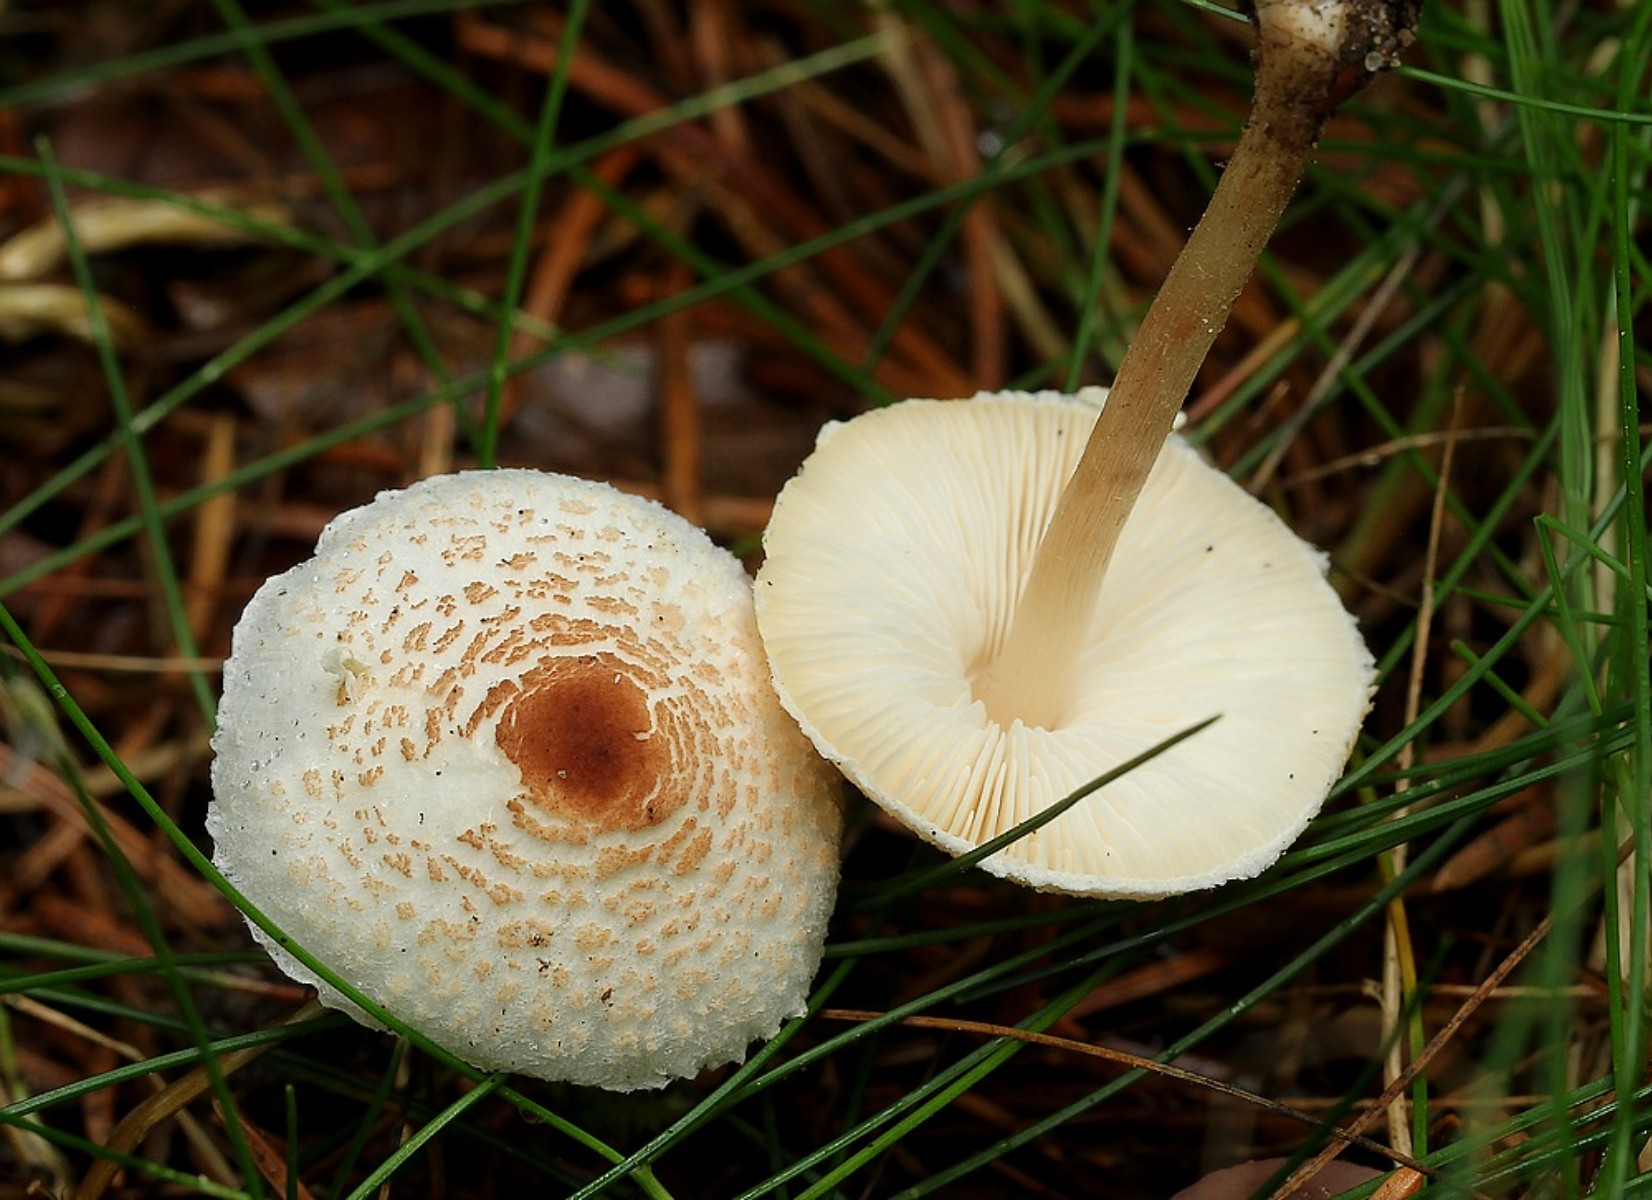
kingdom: Fungi
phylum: Basidiomycota
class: Agaricomycetes
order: Agaricales
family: Agaricaceae
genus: Lepiota
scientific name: Lepiota cristata
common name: stinkende parasolhat
